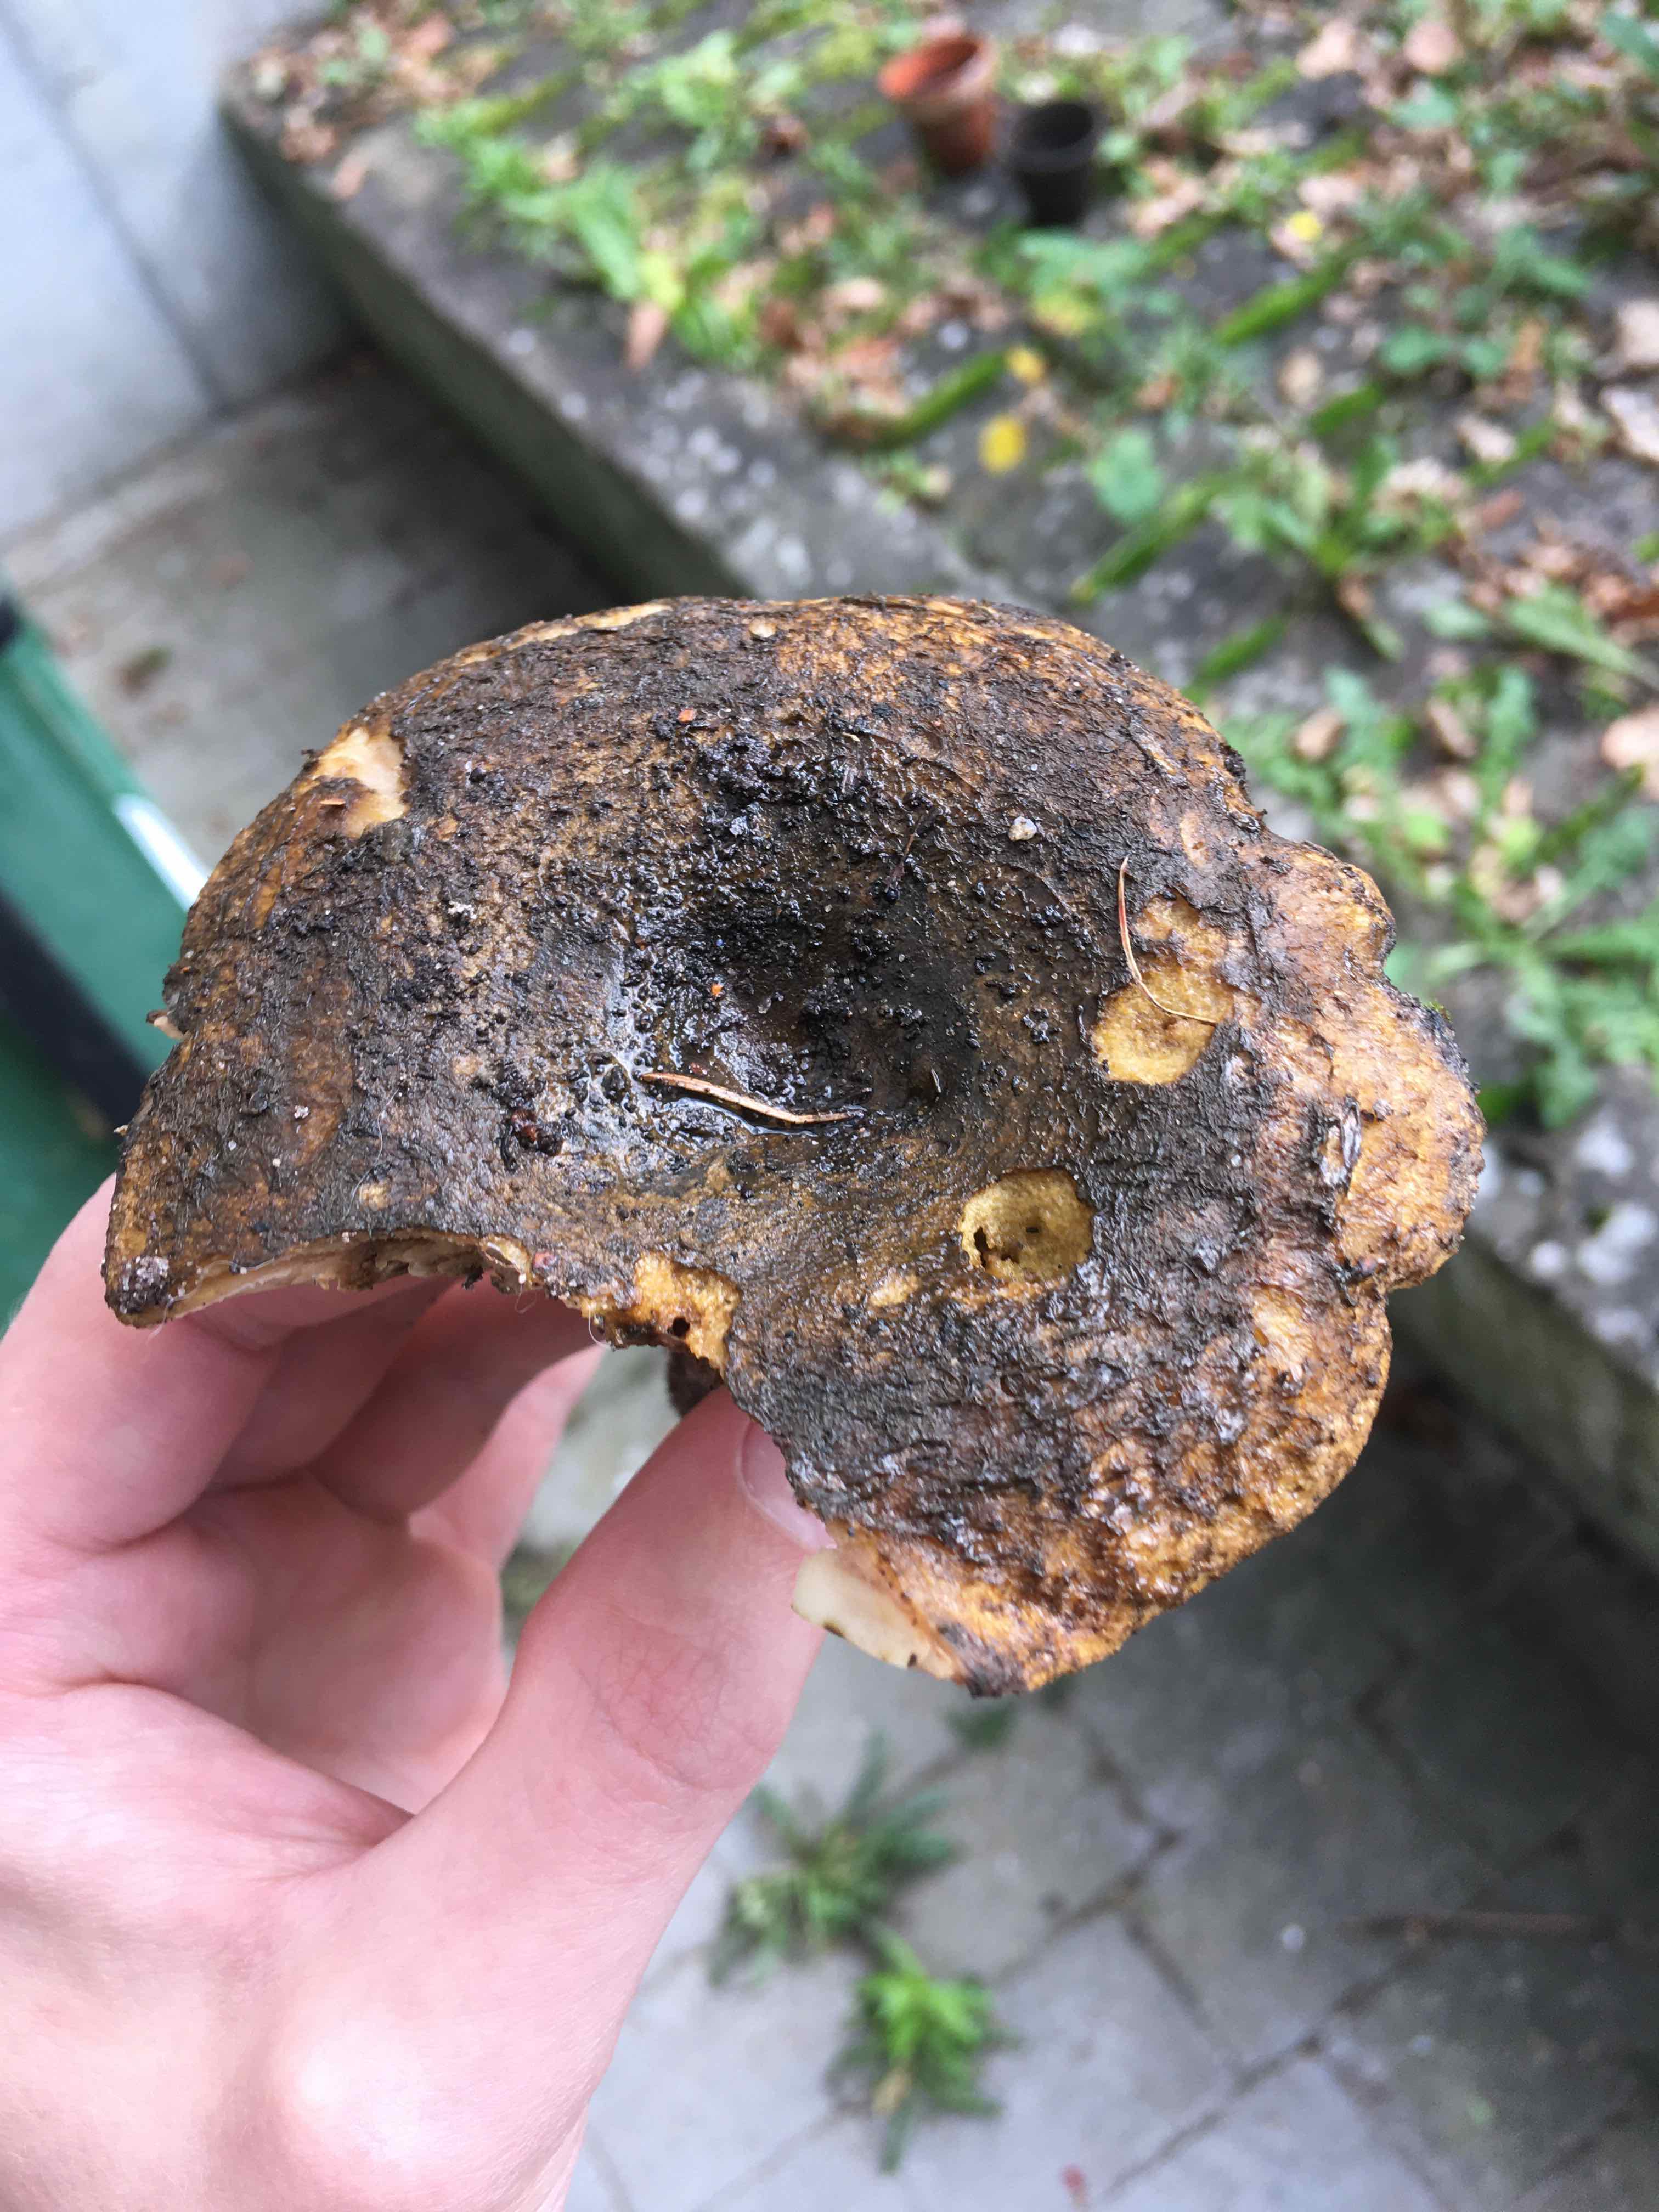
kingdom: Fungi
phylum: Basidiomycota
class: Agaricomycetes
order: Russulales
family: Russulaceae
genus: Lactarius
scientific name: Lactarius necator
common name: manddraber-mælkehat
